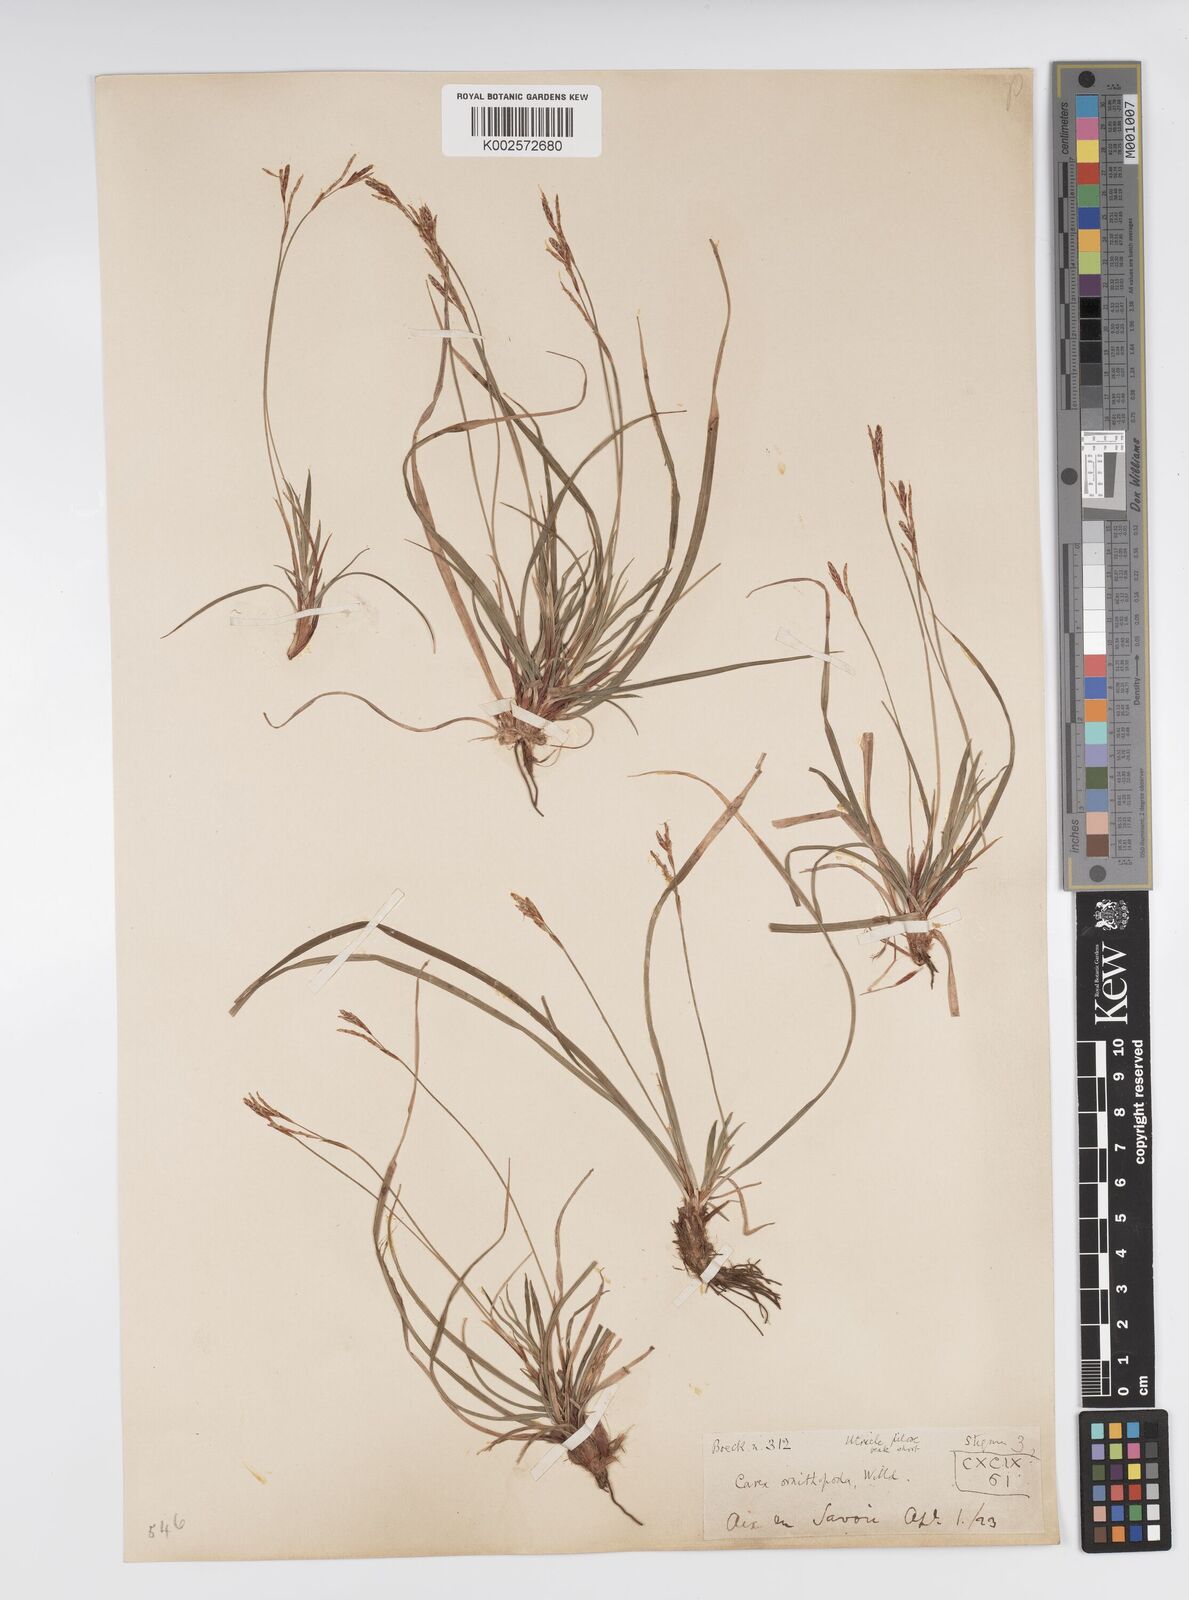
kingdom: Plantae
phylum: Tracheophyta
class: Liliopsida
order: Poales
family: Cyperaceae
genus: Carex
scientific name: Carex ornithopoda
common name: Bird's-foot sedge
